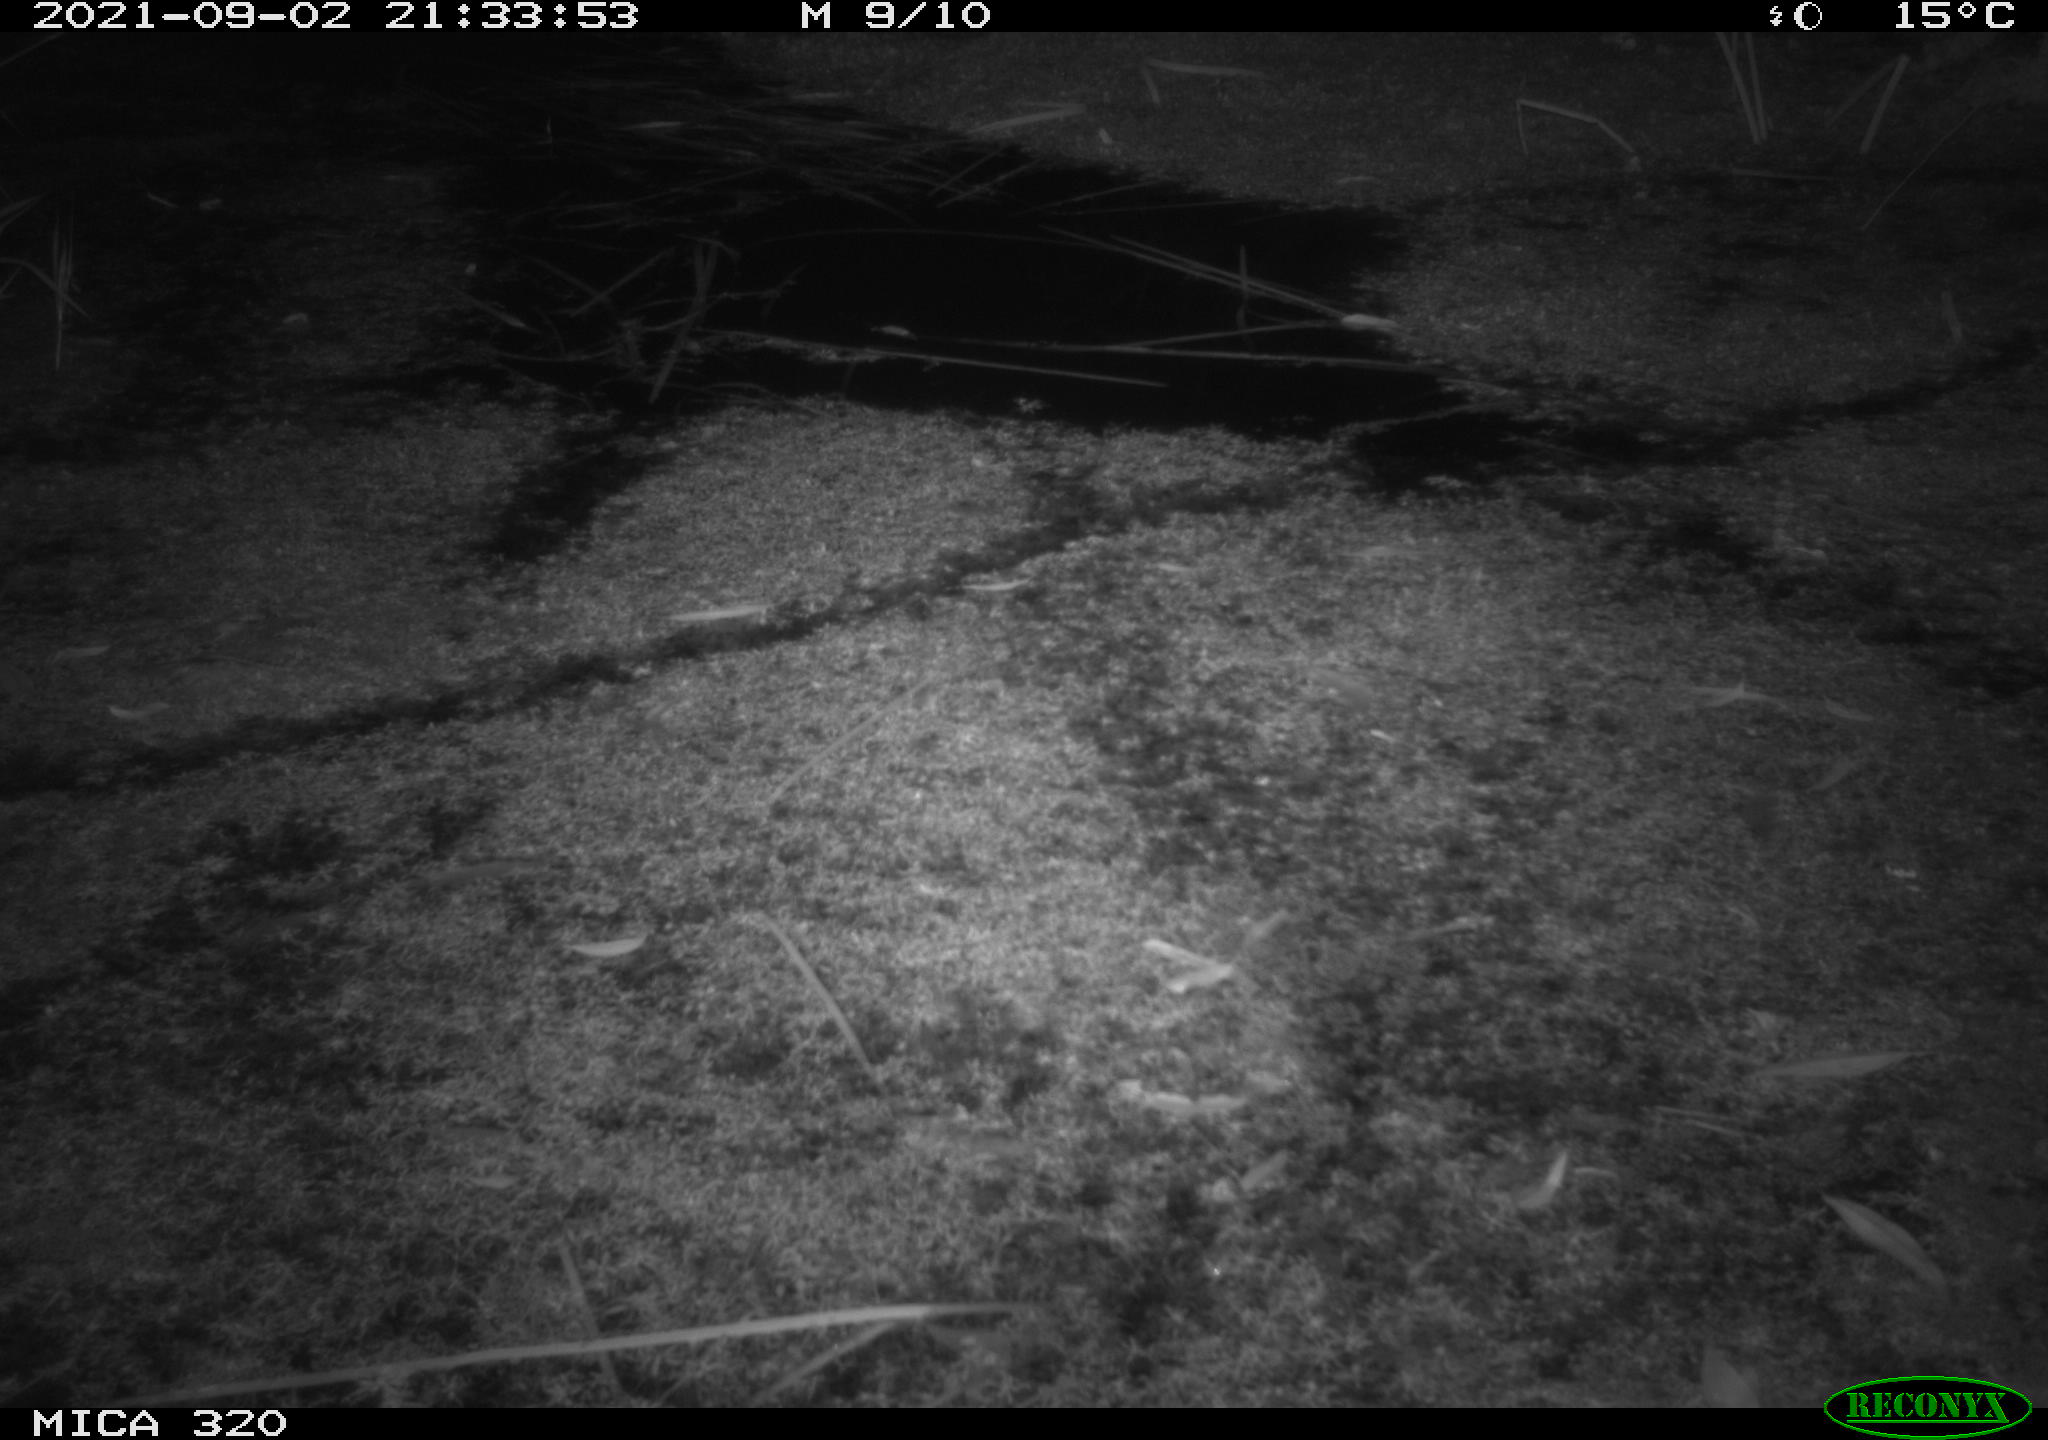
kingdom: Animalia
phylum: Chordata
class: Mammalia
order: Rodentia
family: Muridae
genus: Rattus
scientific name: Rattus norvegicus
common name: Brown rat
